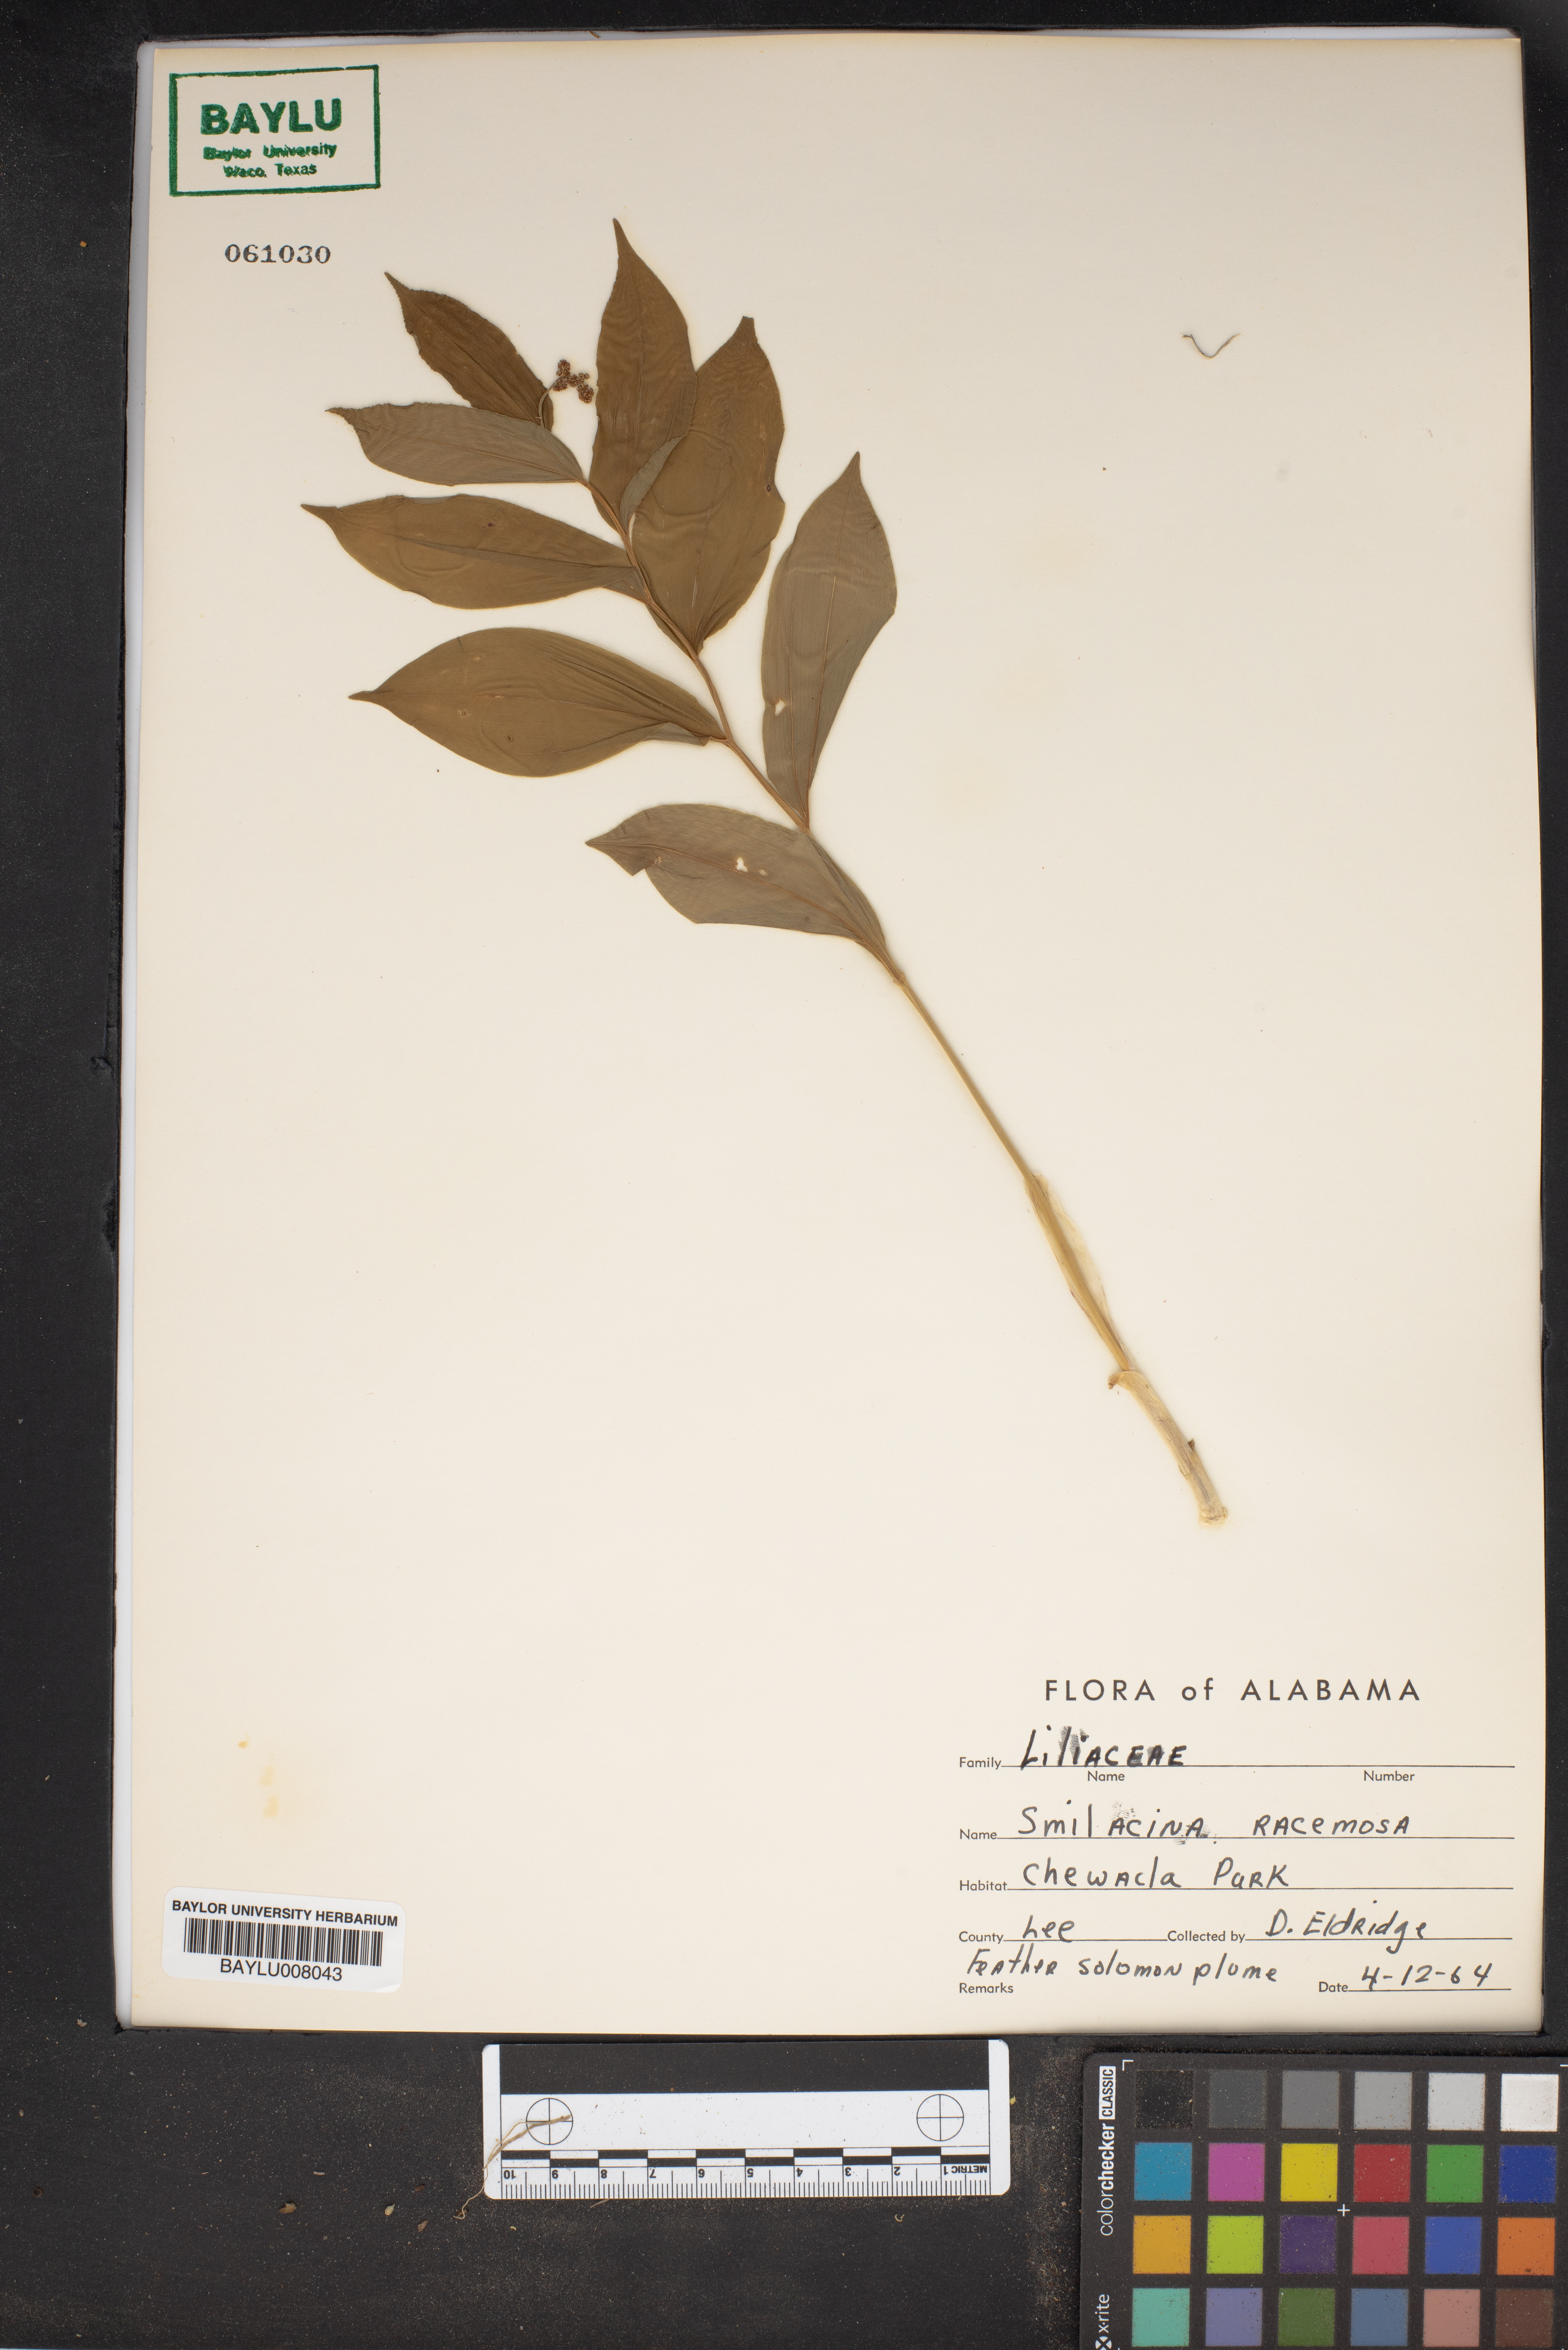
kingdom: Plantae
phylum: Tracheophyta
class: Liliopsida
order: Asparagales
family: Asparagaceae
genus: Maianthemum
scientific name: Maianthemum racemosum
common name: False spikenard
